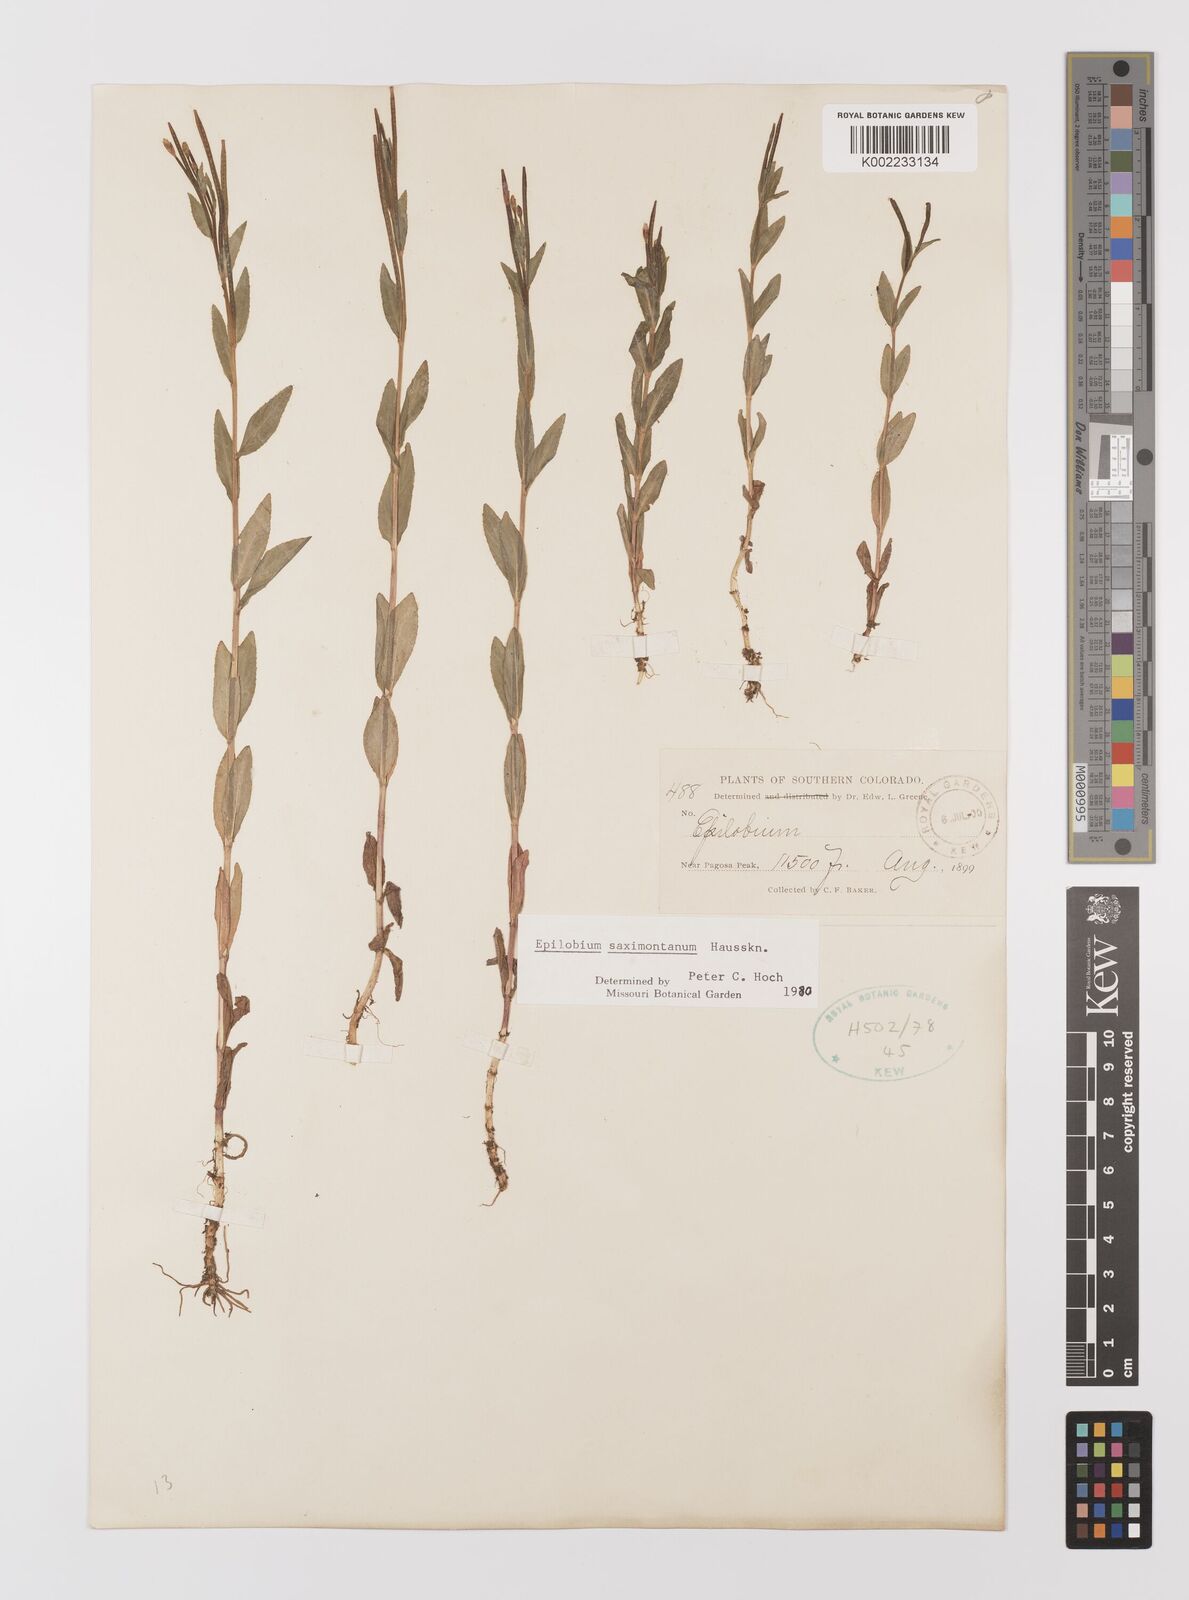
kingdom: Plantae
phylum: Tracheophyta
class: Magnoliopsida
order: Myrtales
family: Onagraceae
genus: Epilobium
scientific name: Epilobium saximontanum
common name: Rocky mountain willowherb
